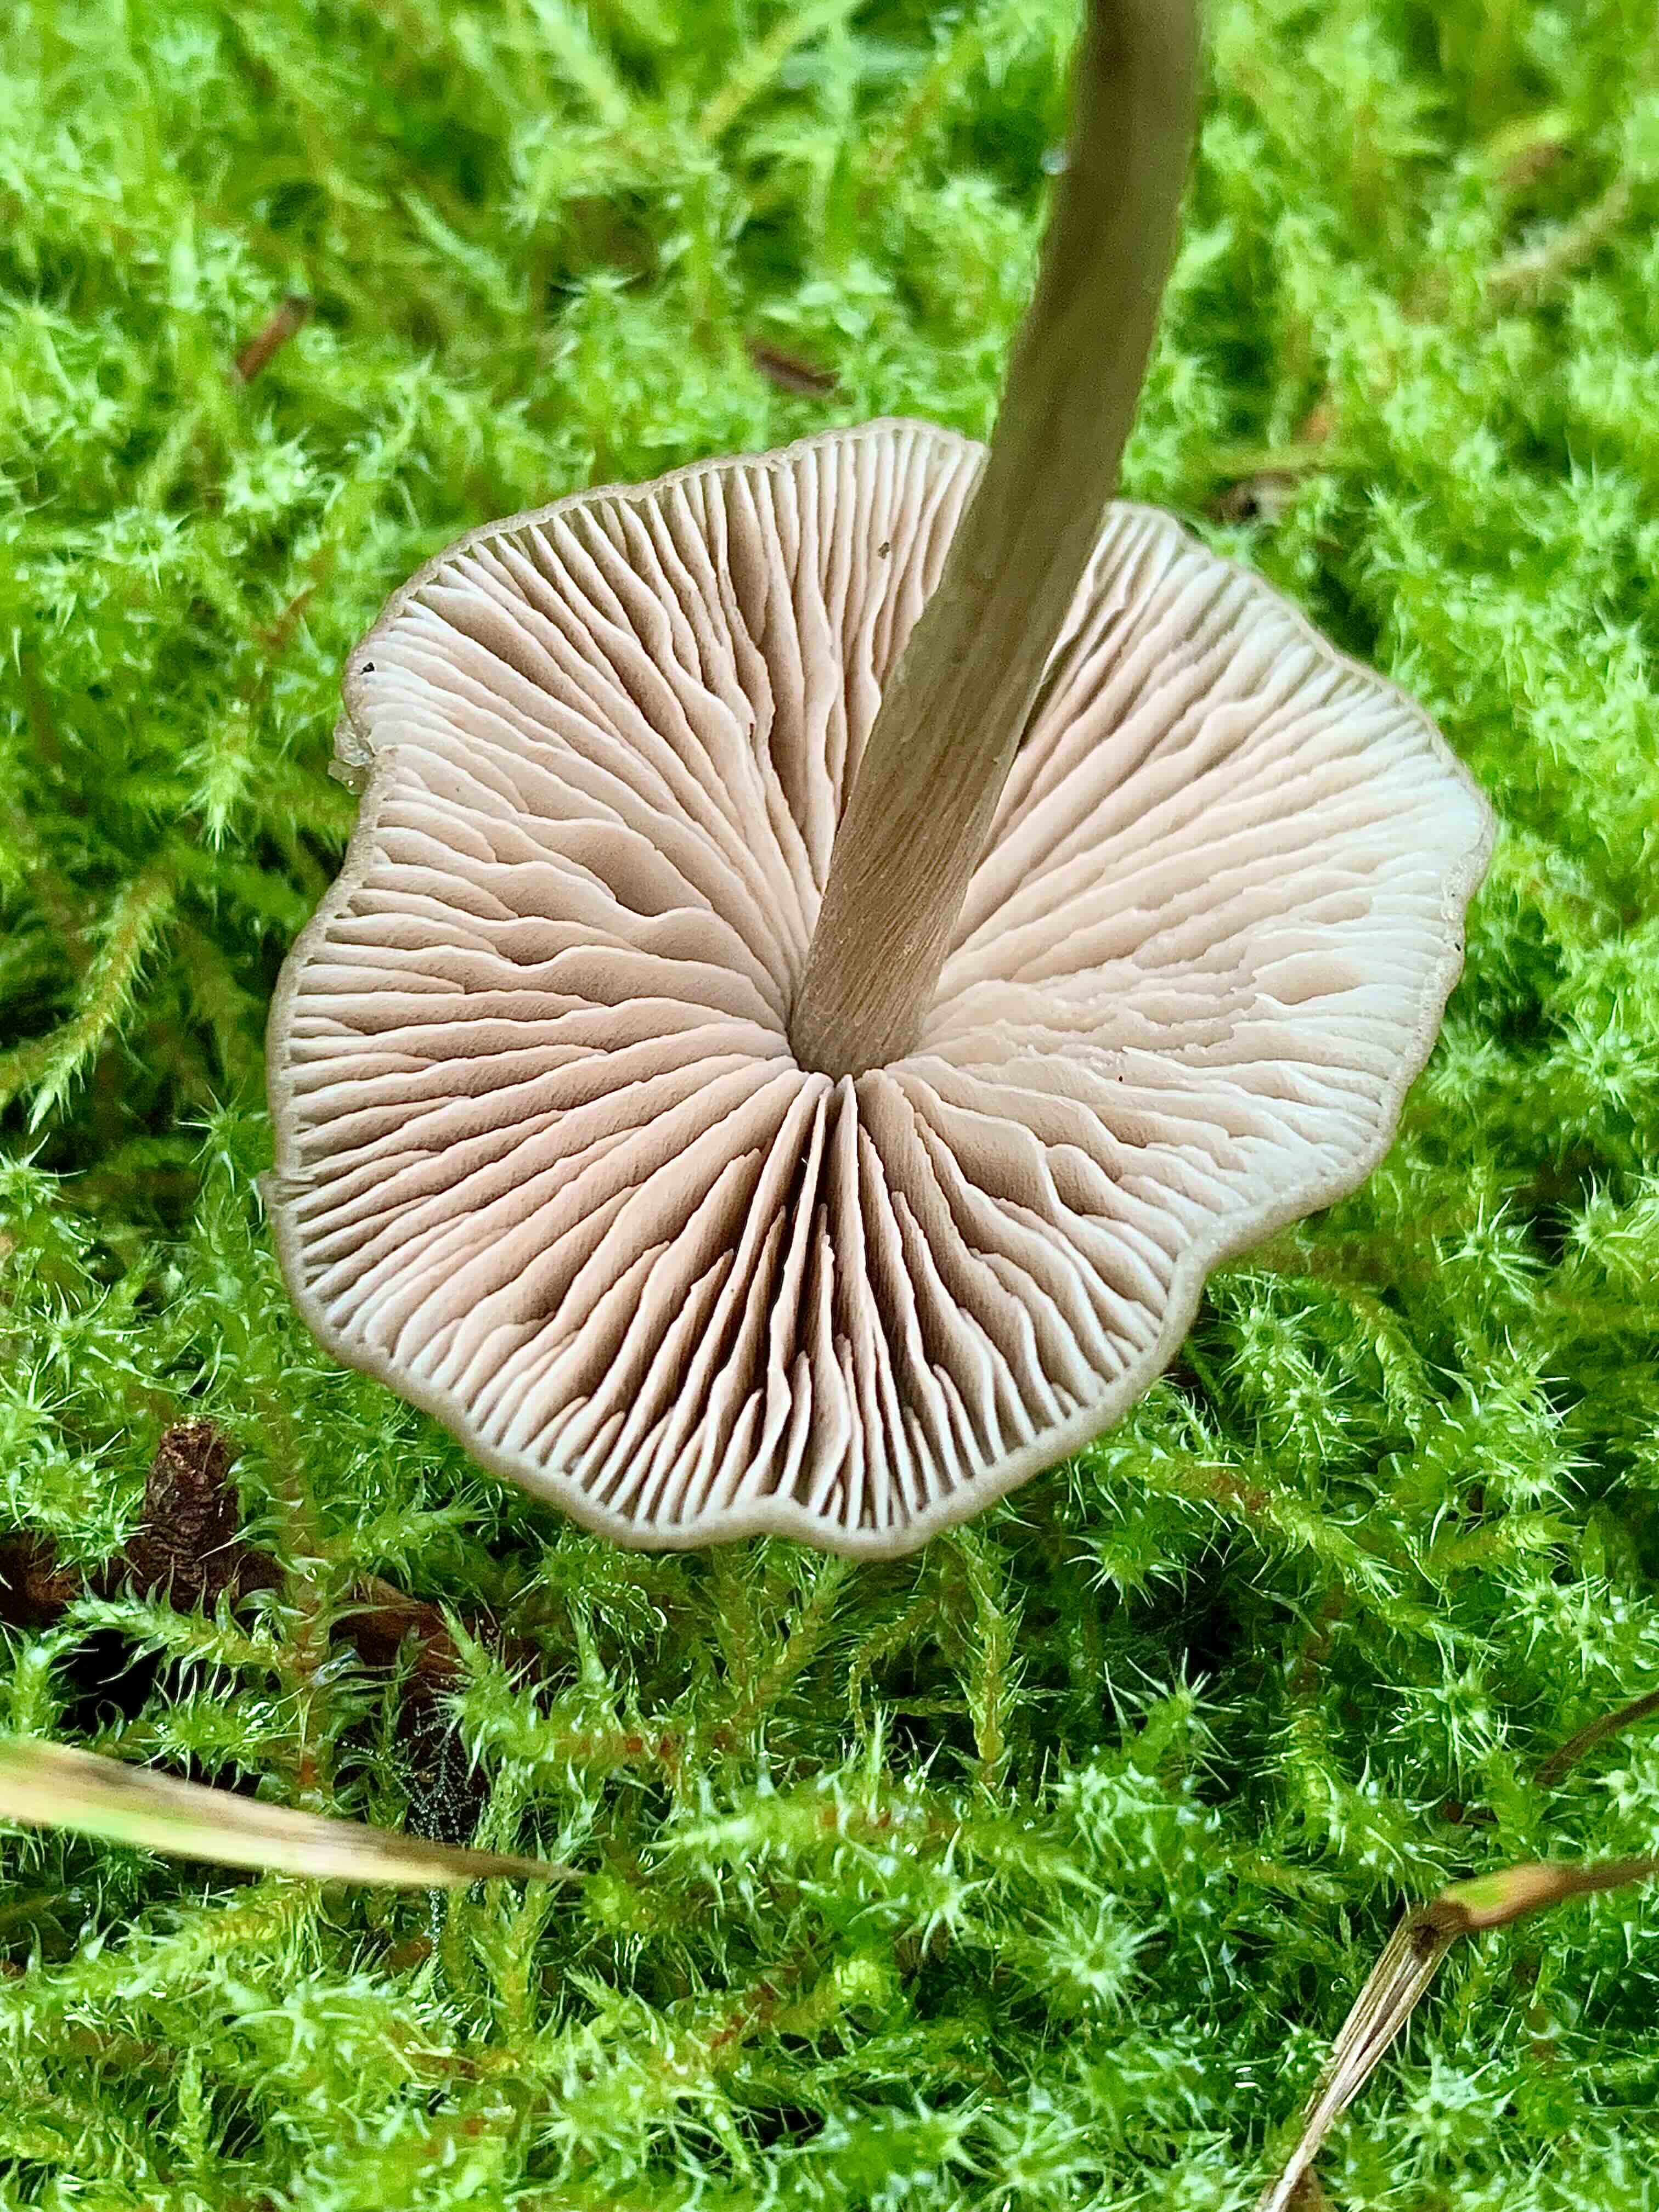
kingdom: Fungi
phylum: Basidiomycota
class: Agaricomycetes
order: Agaricales
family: Entolomataceae
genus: Entoloma
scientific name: Entoloma
